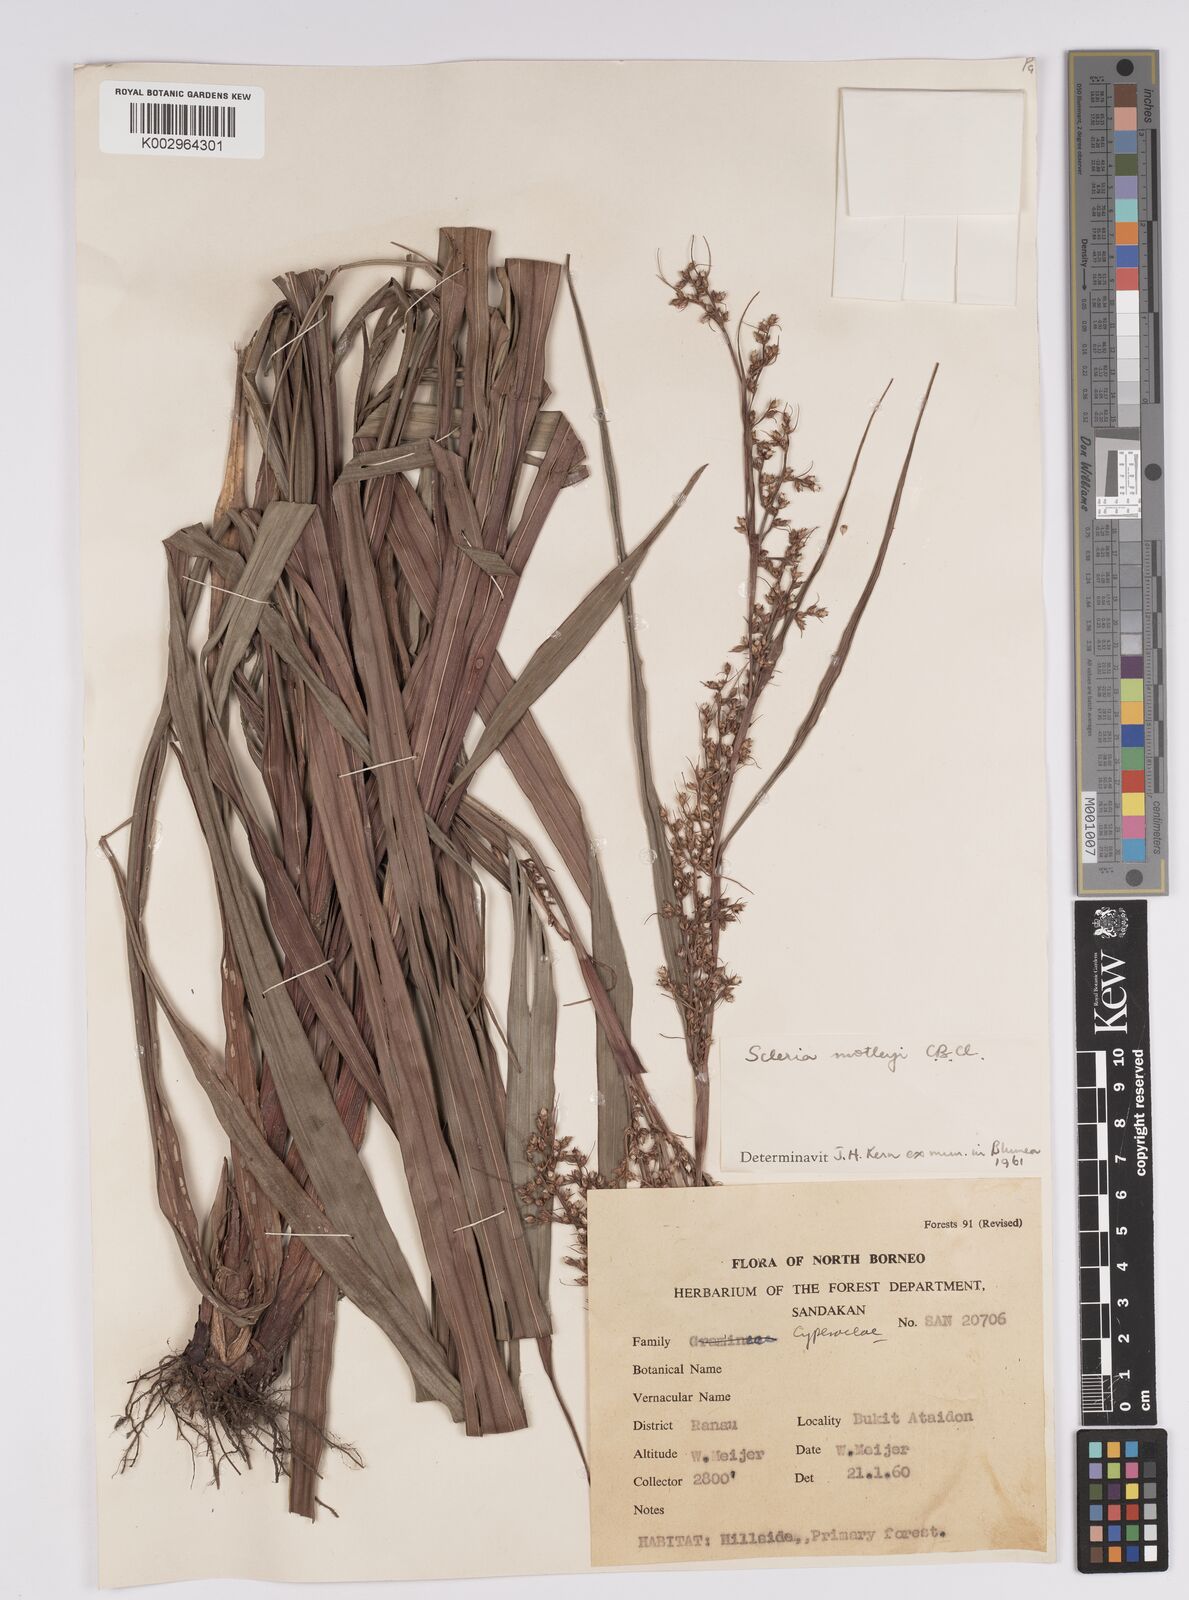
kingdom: Plantae
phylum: Tracheophyta
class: Liliopsida
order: Poales
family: Cyperaceae
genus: Scleria
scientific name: Scleria motleyi
